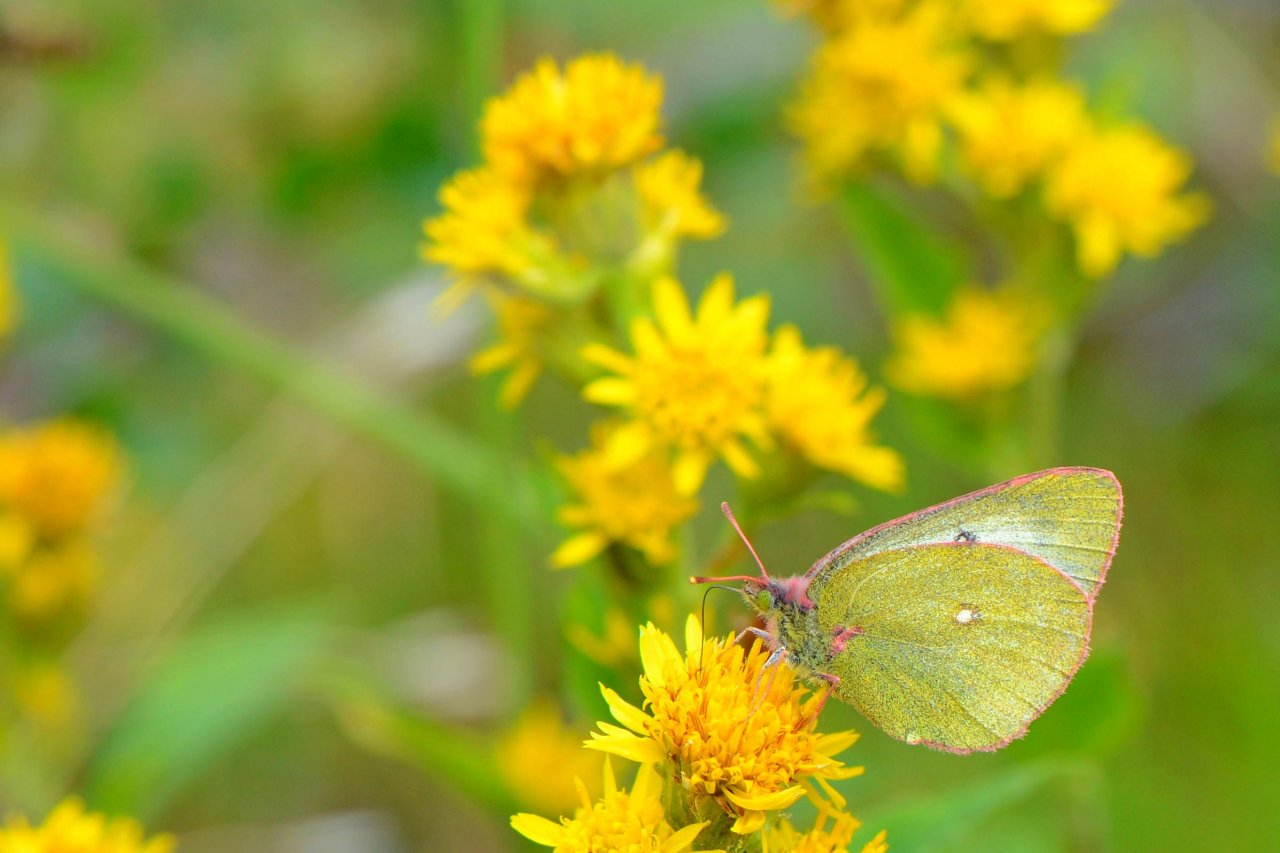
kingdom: Animalia
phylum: Arthropoda
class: Insecta
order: Lepidoptera
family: Pieridae
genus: Colias
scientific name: Colias palaeno
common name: Chippewa Sulphur
